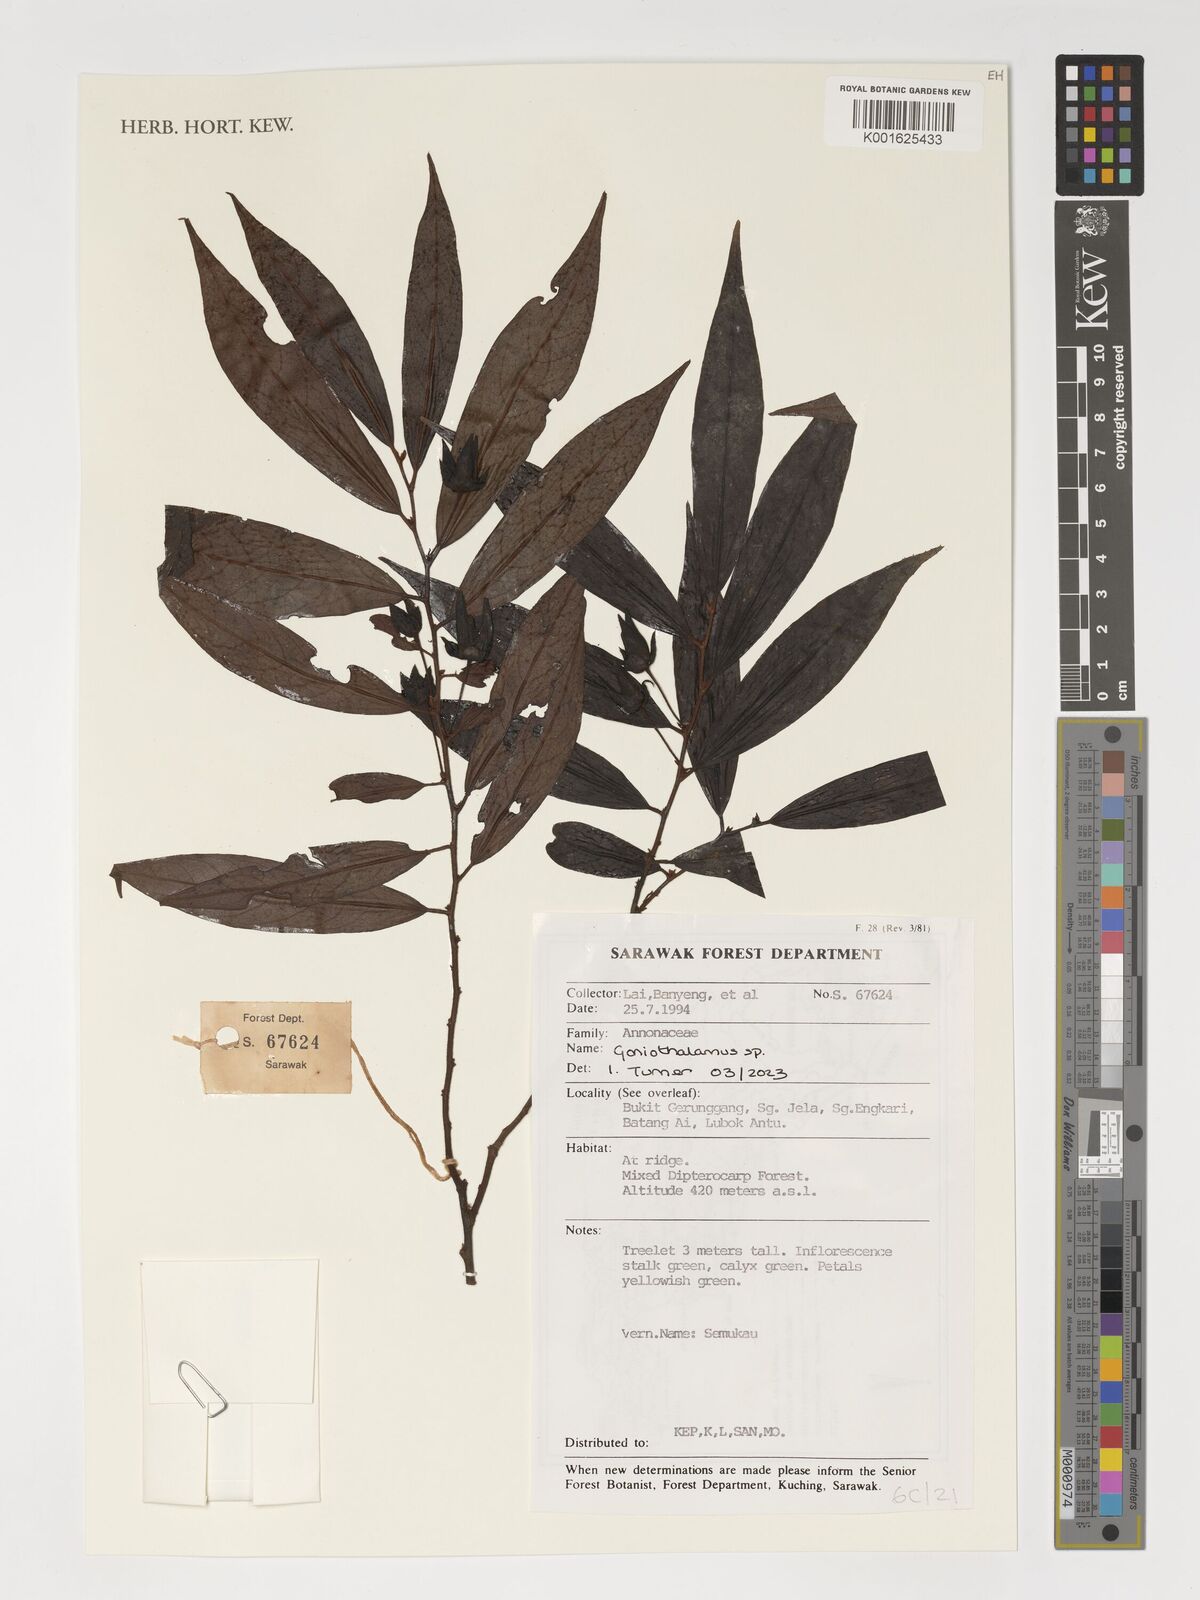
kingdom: Plantae
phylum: Tracheophyta
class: Magnoliopsida
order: Magnoliales
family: Annonaceae
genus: Goniothalamus
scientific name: Goniothalamus
